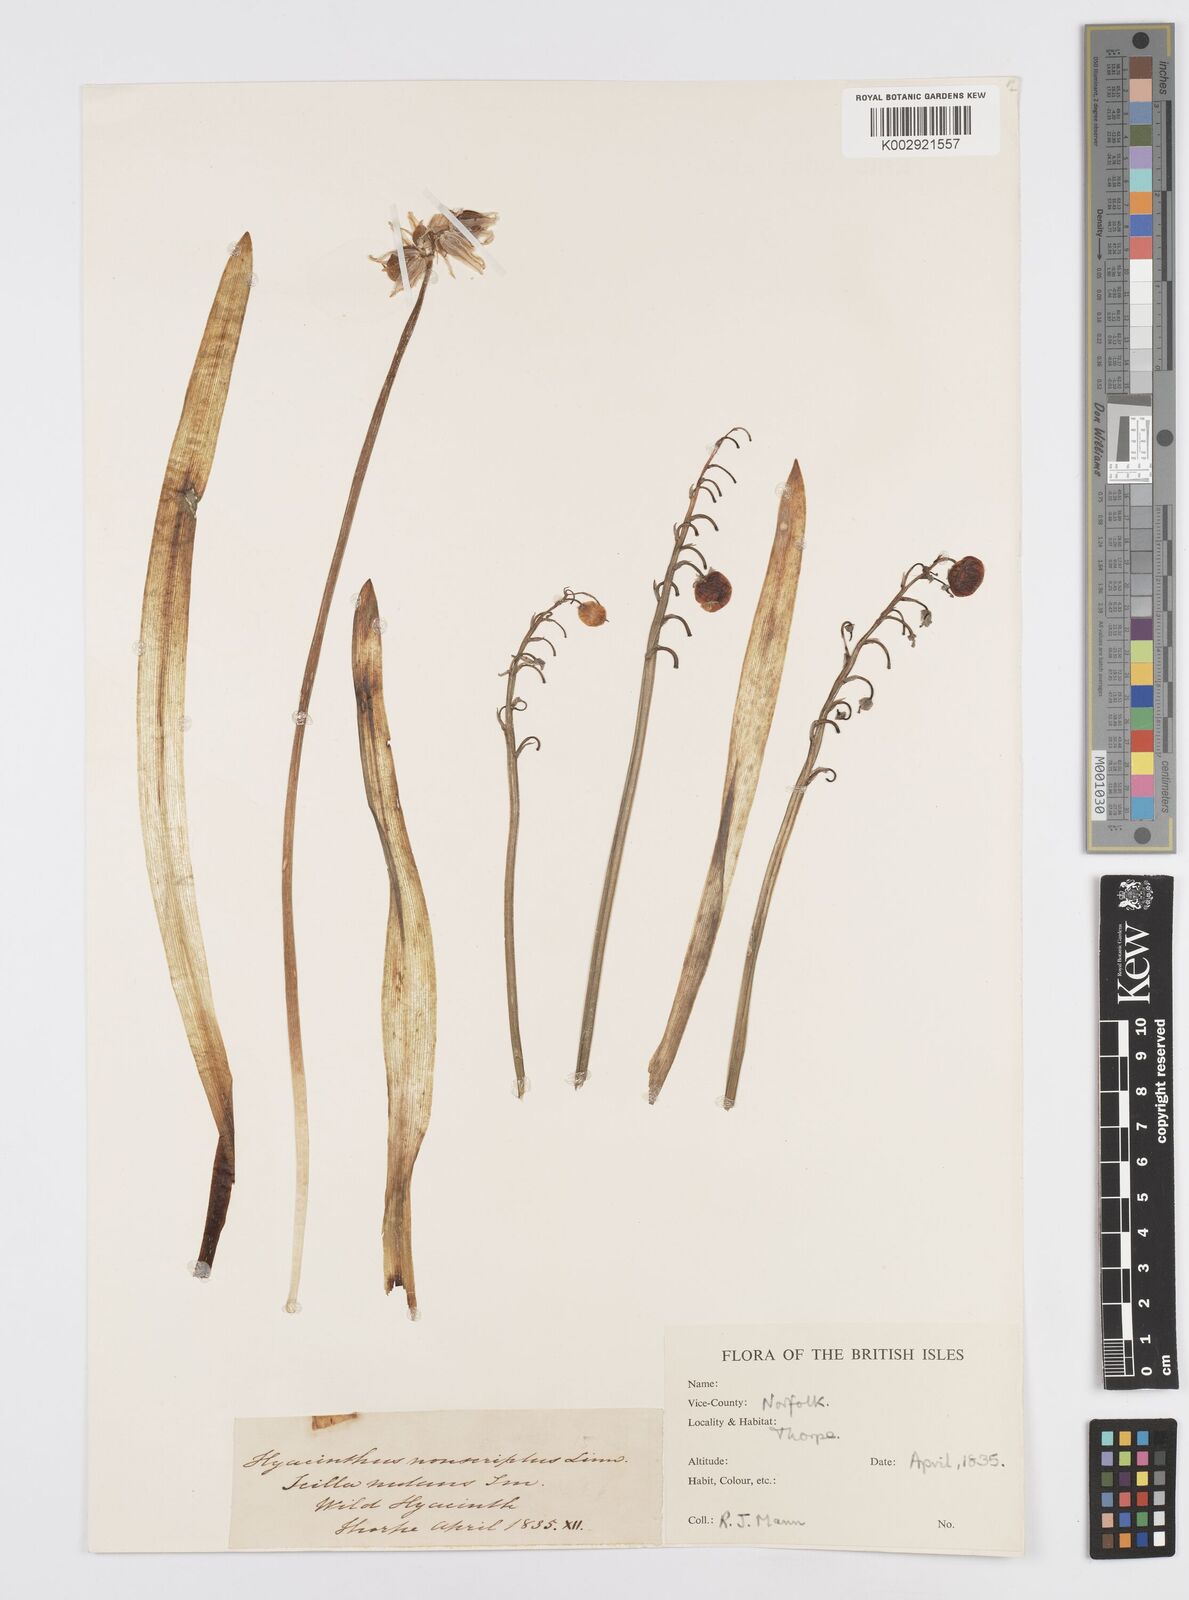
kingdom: Plantae
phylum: Tracheophyta
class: Liliopsida
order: Asparagales
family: Asparagaceae
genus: Hyacinthoides
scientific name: Hyacinthoides non-scripta
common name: Bluebell
